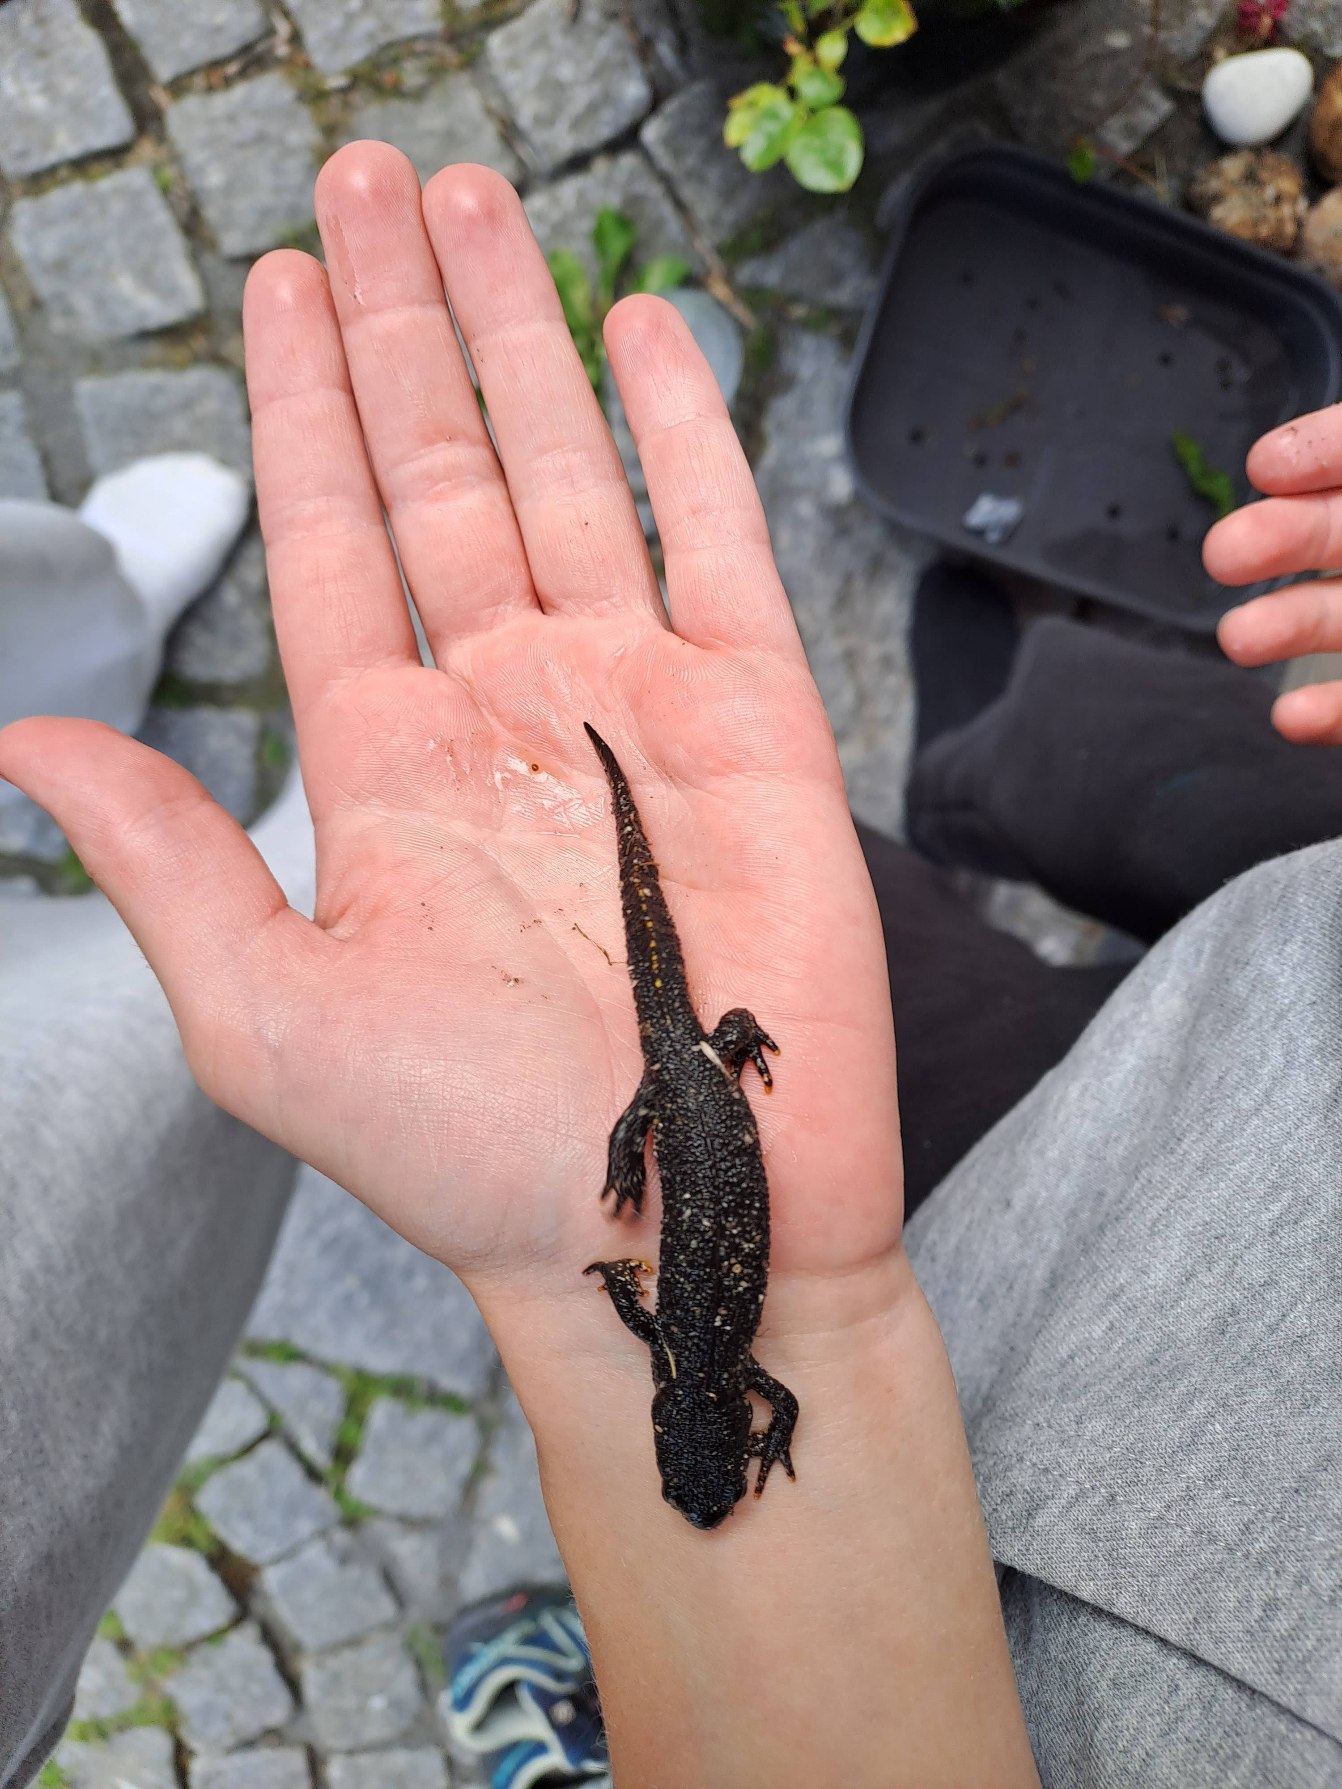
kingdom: Animalia
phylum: Chordata
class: Amphibia
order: Caudata
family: Salamandridae
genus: Triturus
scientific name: Triturus cristatus
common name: Stor vandsalamander
